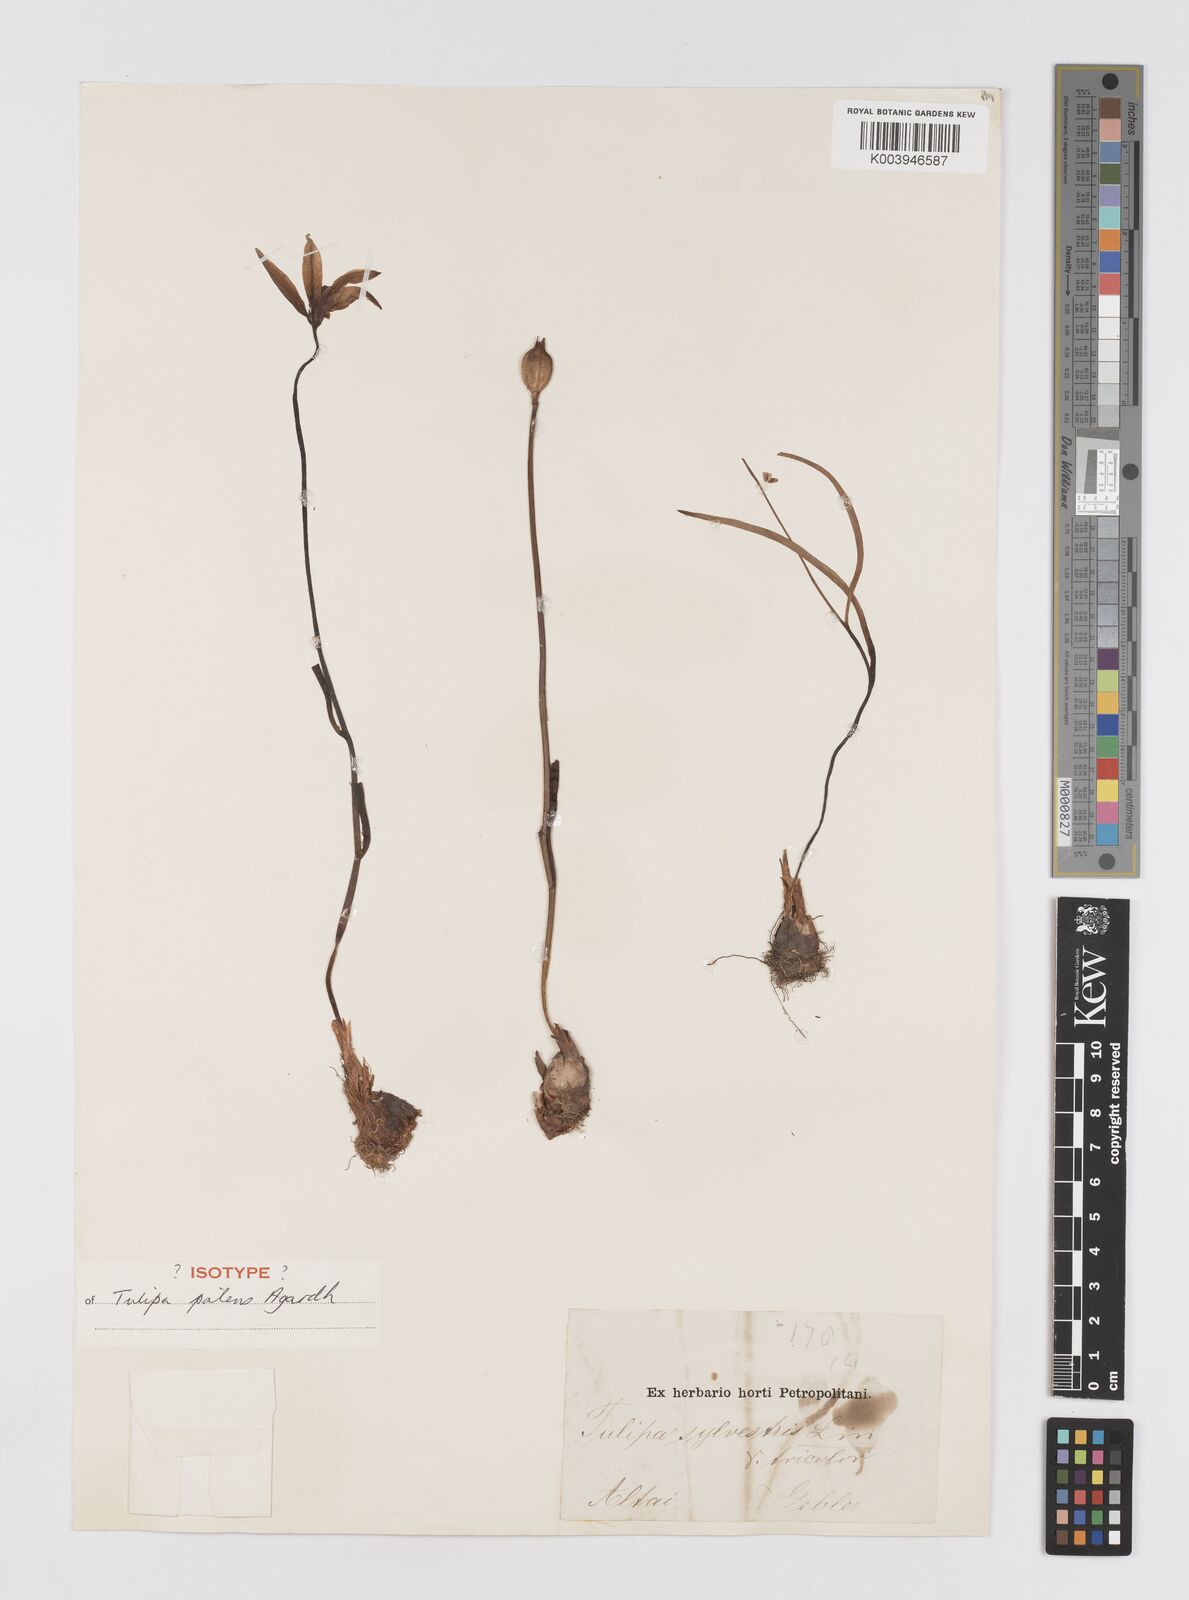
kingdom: Plantae
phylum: Tracheophyta
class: Liliopsida
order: Liliales
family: Liliaceae
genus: Tulipa
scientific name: Tulipa sylvestris
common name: Wild tulip
